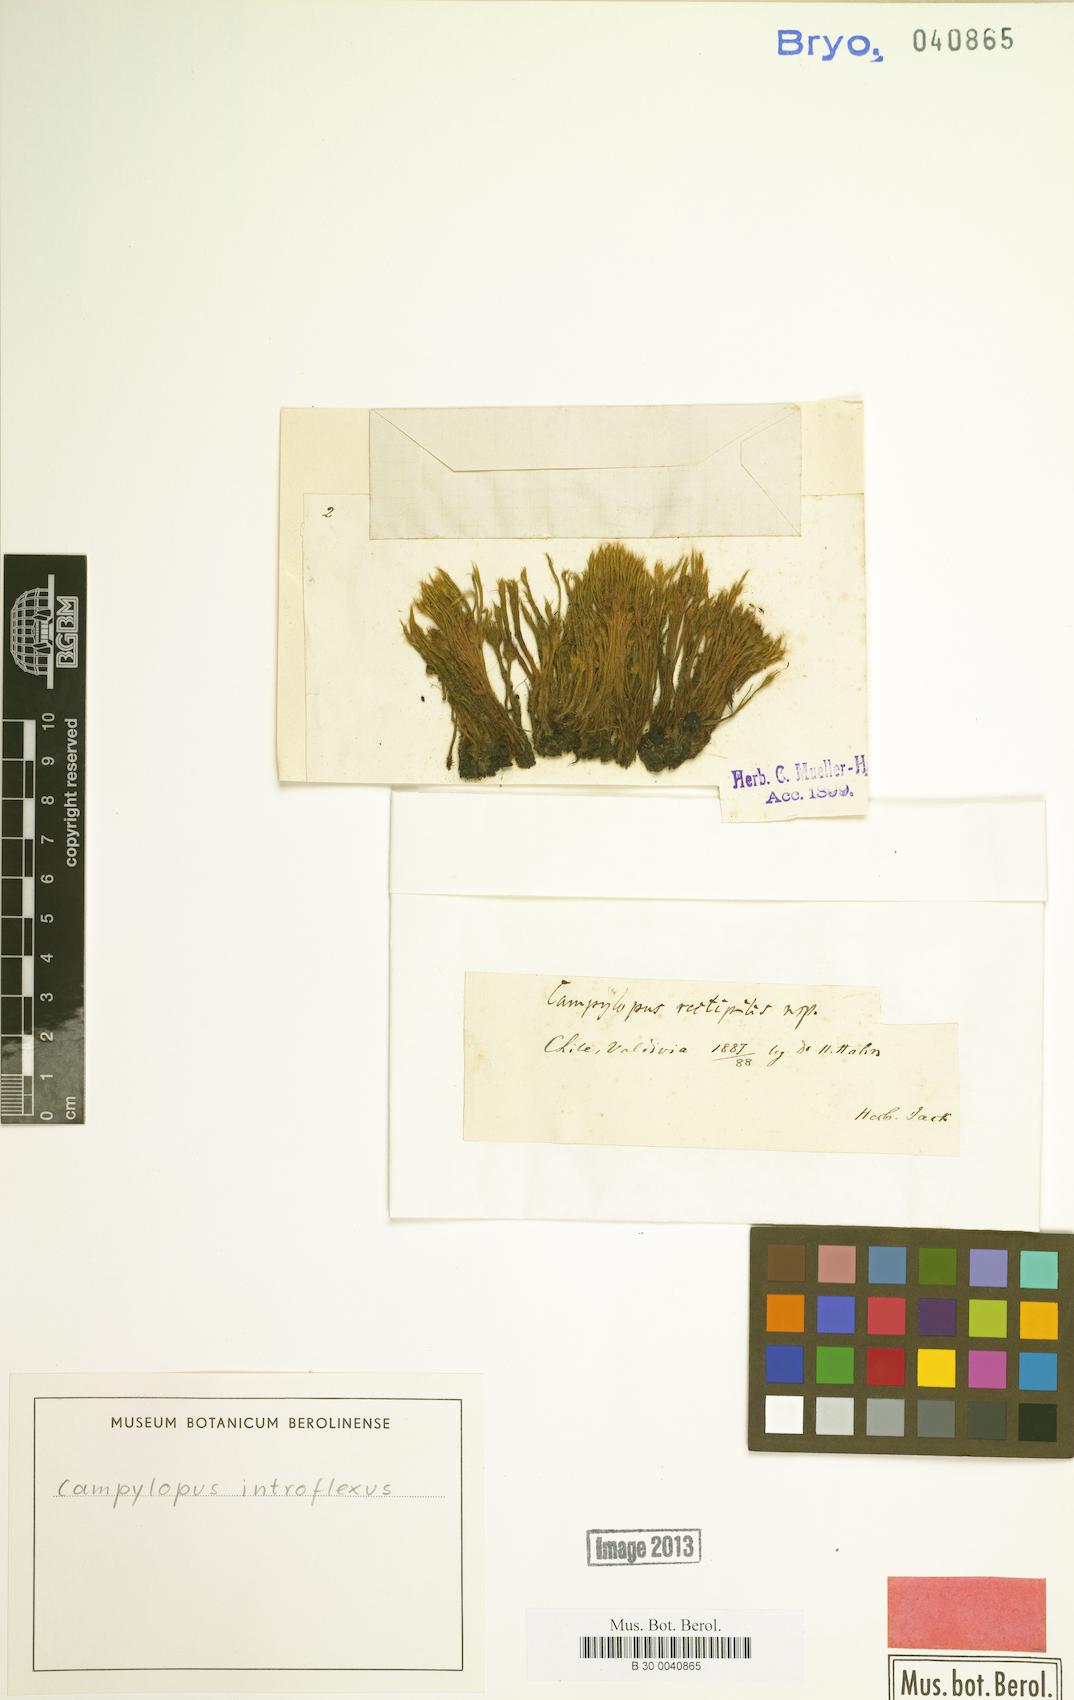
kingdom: Plantae
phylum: Bryophyta
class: Bryopsida
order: Dicranales
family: Leucobryaceae
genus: Campylopus
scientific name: Campylopus introflexus
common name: Heath star moss
